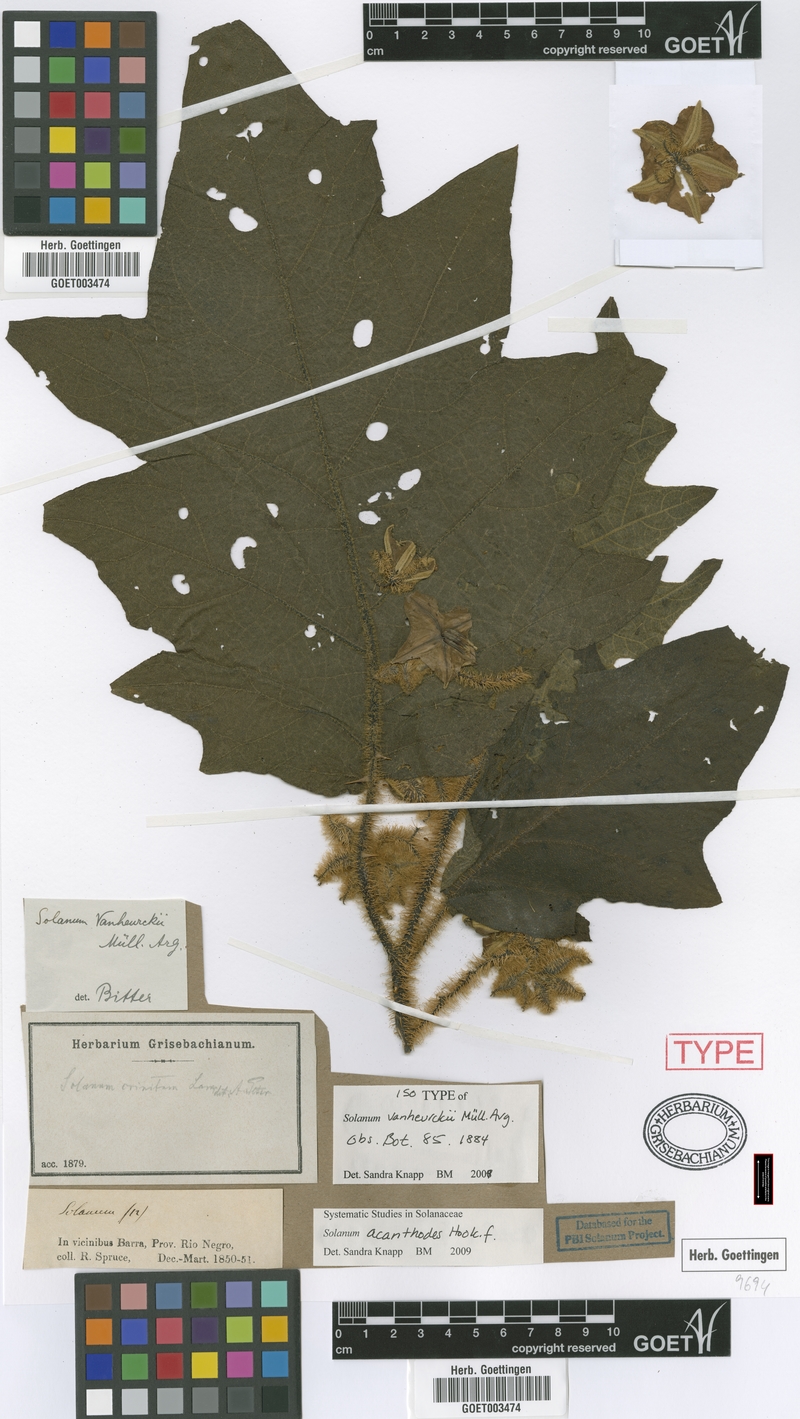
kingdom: Plantae
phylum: Tracheophyta
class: Magnoliopsida
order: Solanales
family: Solanaceae
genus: Solanum
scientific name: Solanum vanheurckii
